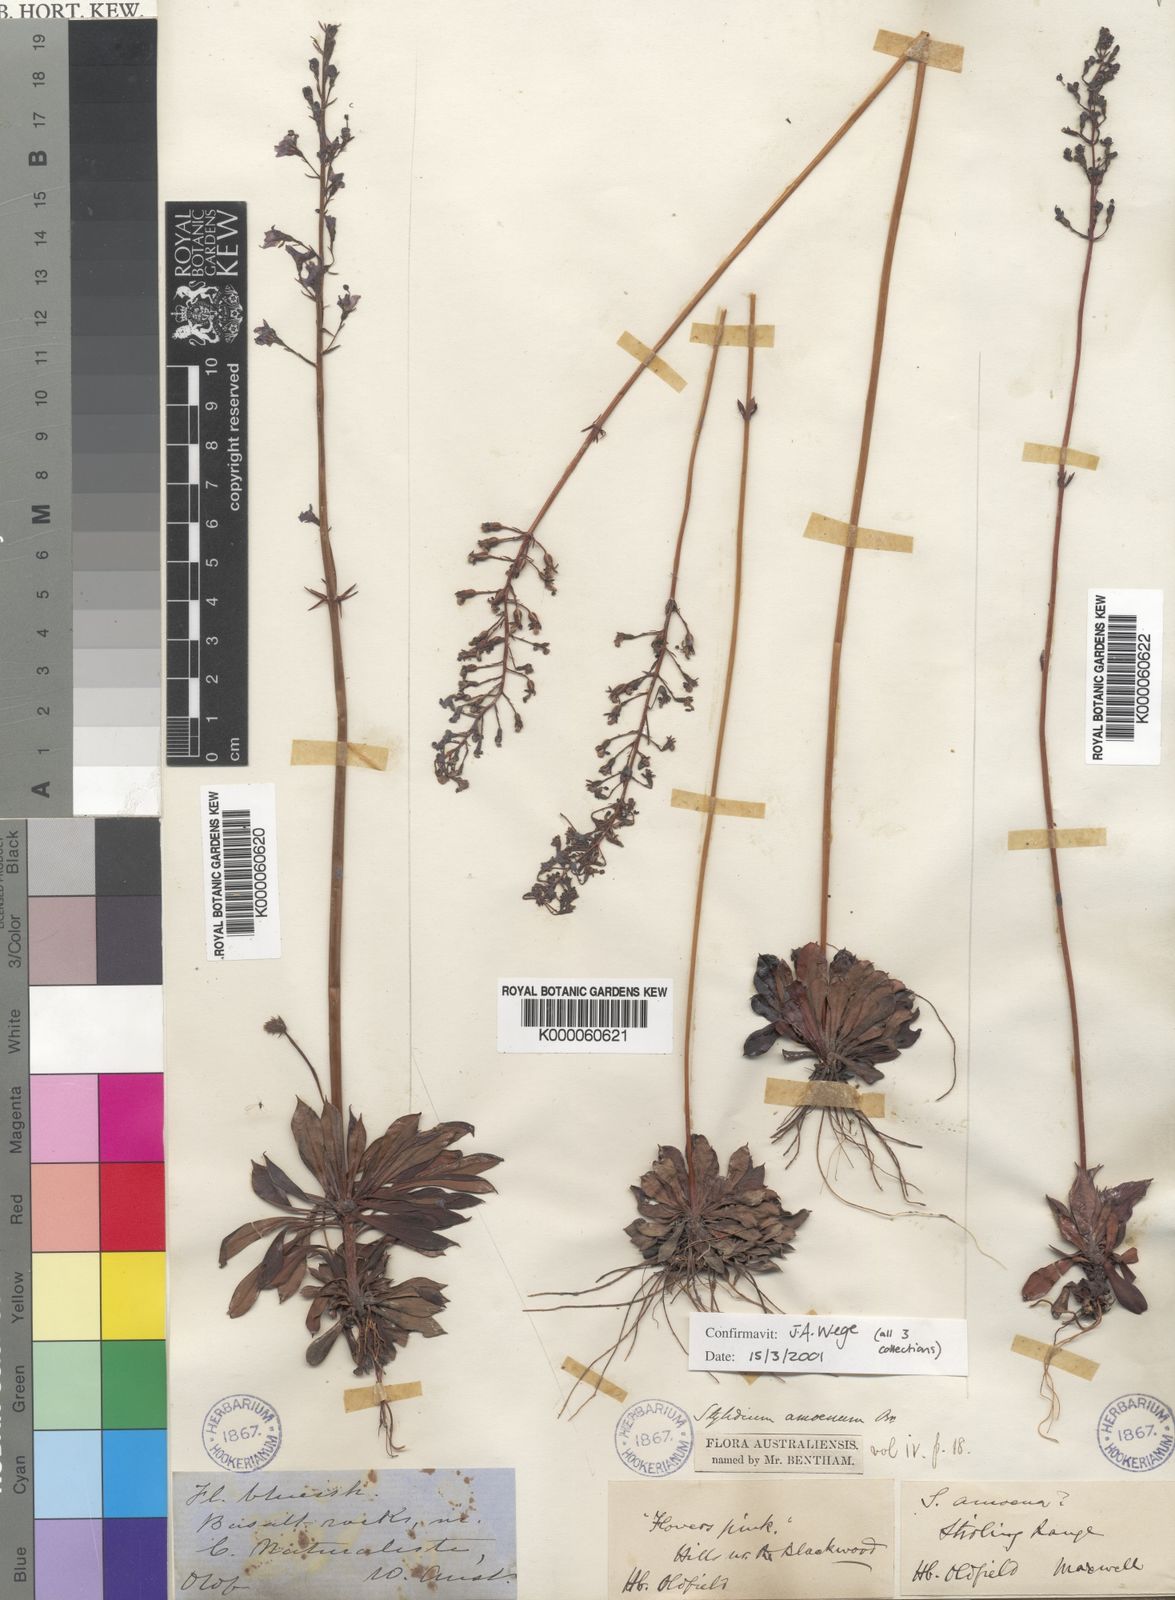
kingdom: Plantae
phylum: Tracheophyta
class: Magnoliopsida
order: Asterales
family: Stylidiaceae
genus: Stylidium
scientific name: Stylidium amoenum
